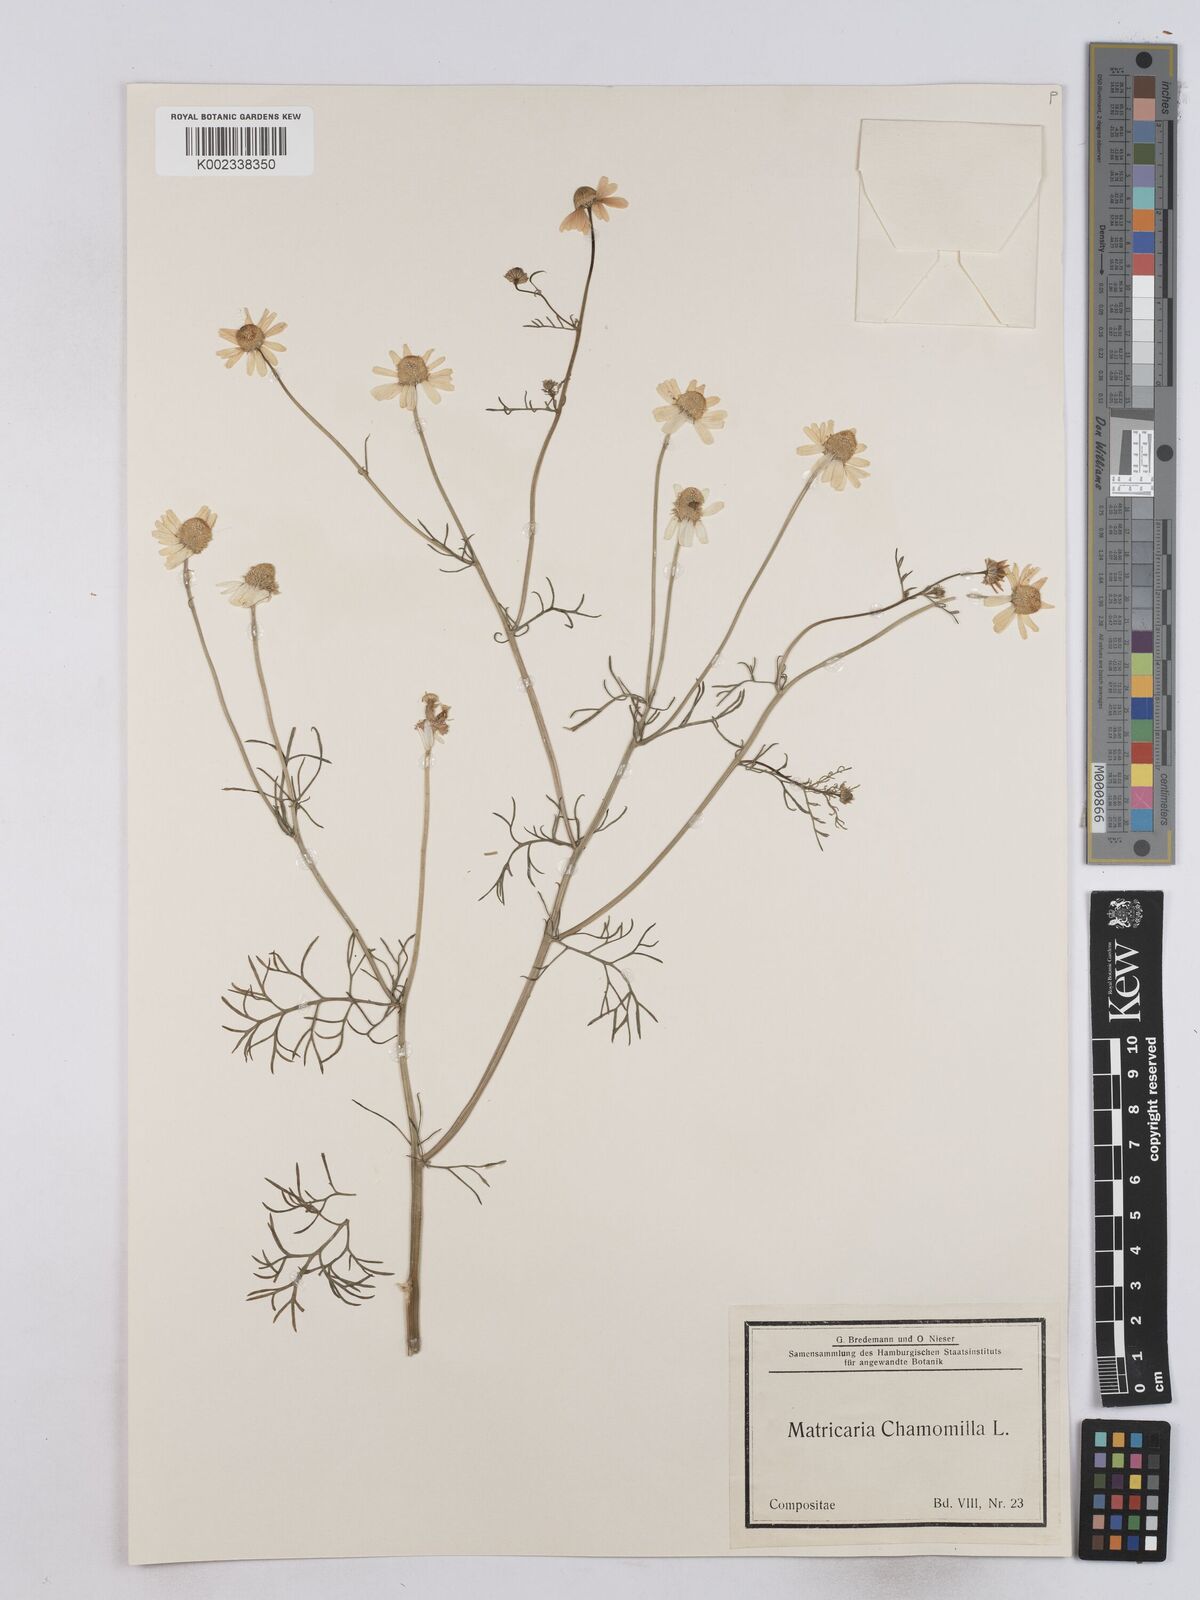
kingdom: Plantae
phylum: Tracheophyta
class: Magnoliopsida
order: Asterales
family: Asteraceae
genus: Matricaria
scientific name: Matricaria chamomilla
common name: Scented mayweed
